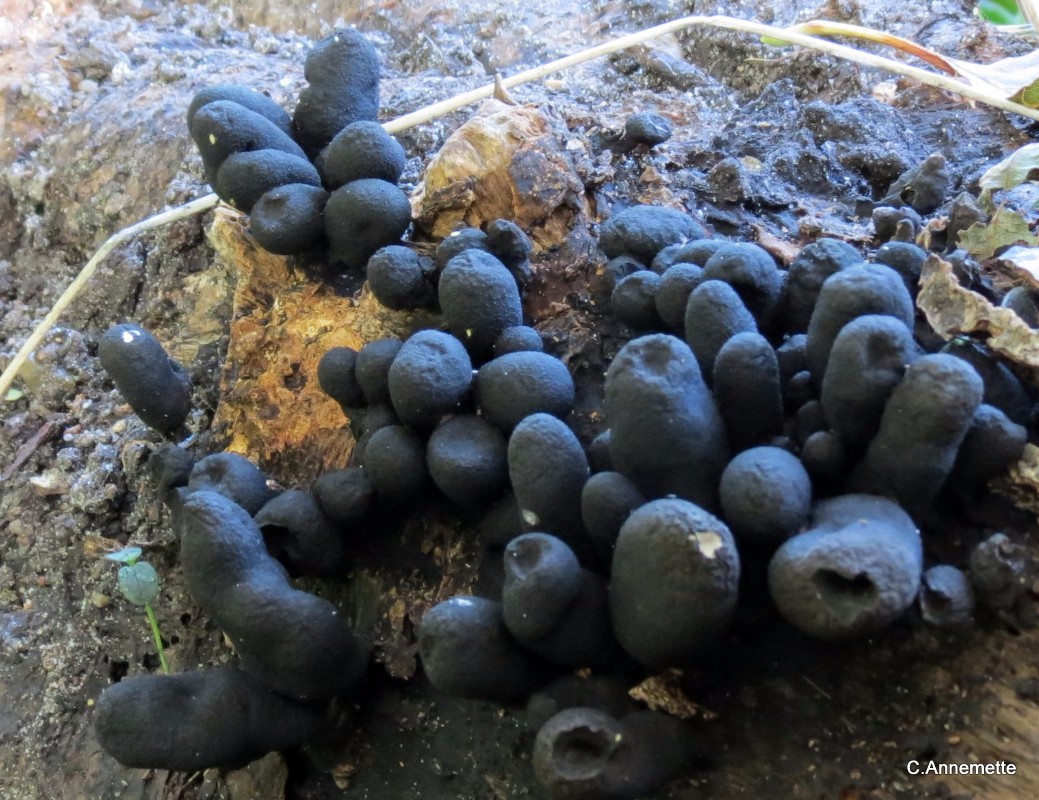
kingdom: Fungi
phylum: Ascomycota
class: Sordariomycetes
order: Xylariales
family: Xylariaceae
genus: Xylaria
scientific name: Xylaria polymorpha
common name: kølle-stødsvamp
